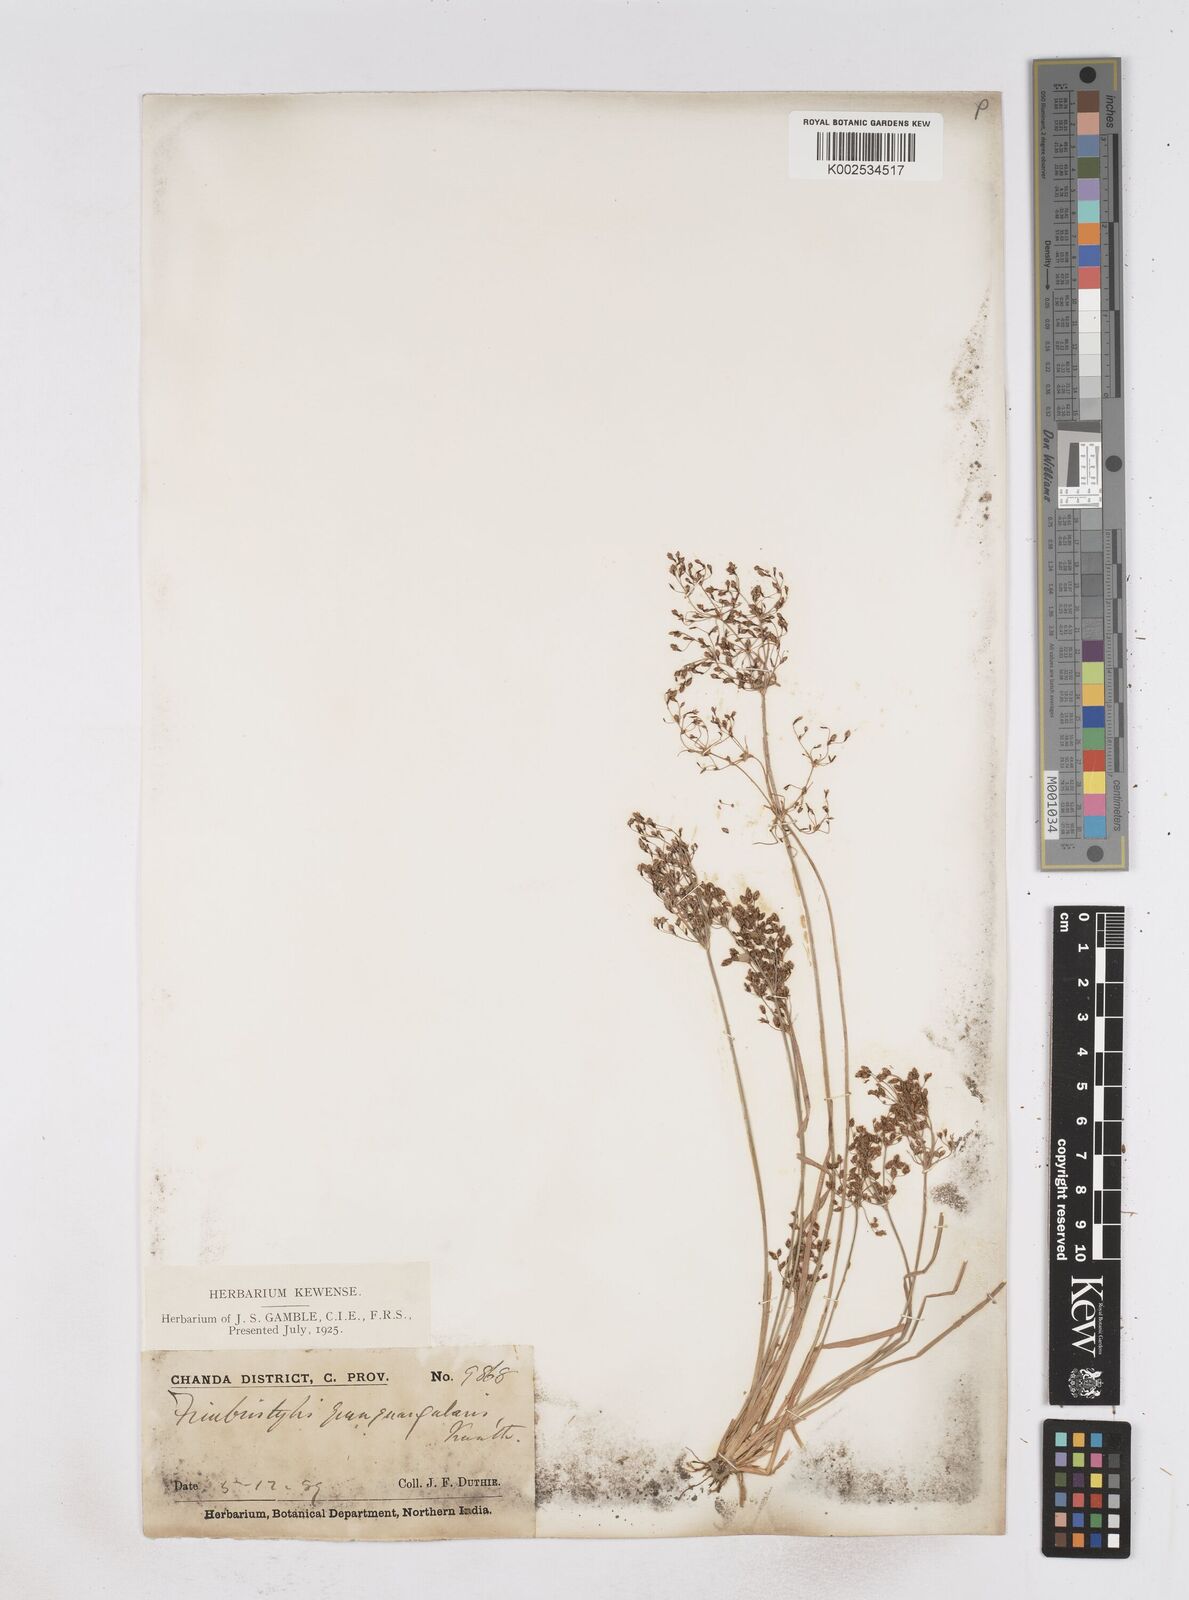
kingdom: Plantae
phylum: Tracheophyta
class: Liliopsida
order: Poales
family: Cyperaceae
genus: Fimbristylis
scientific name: Fimbristylis quinquangularis
